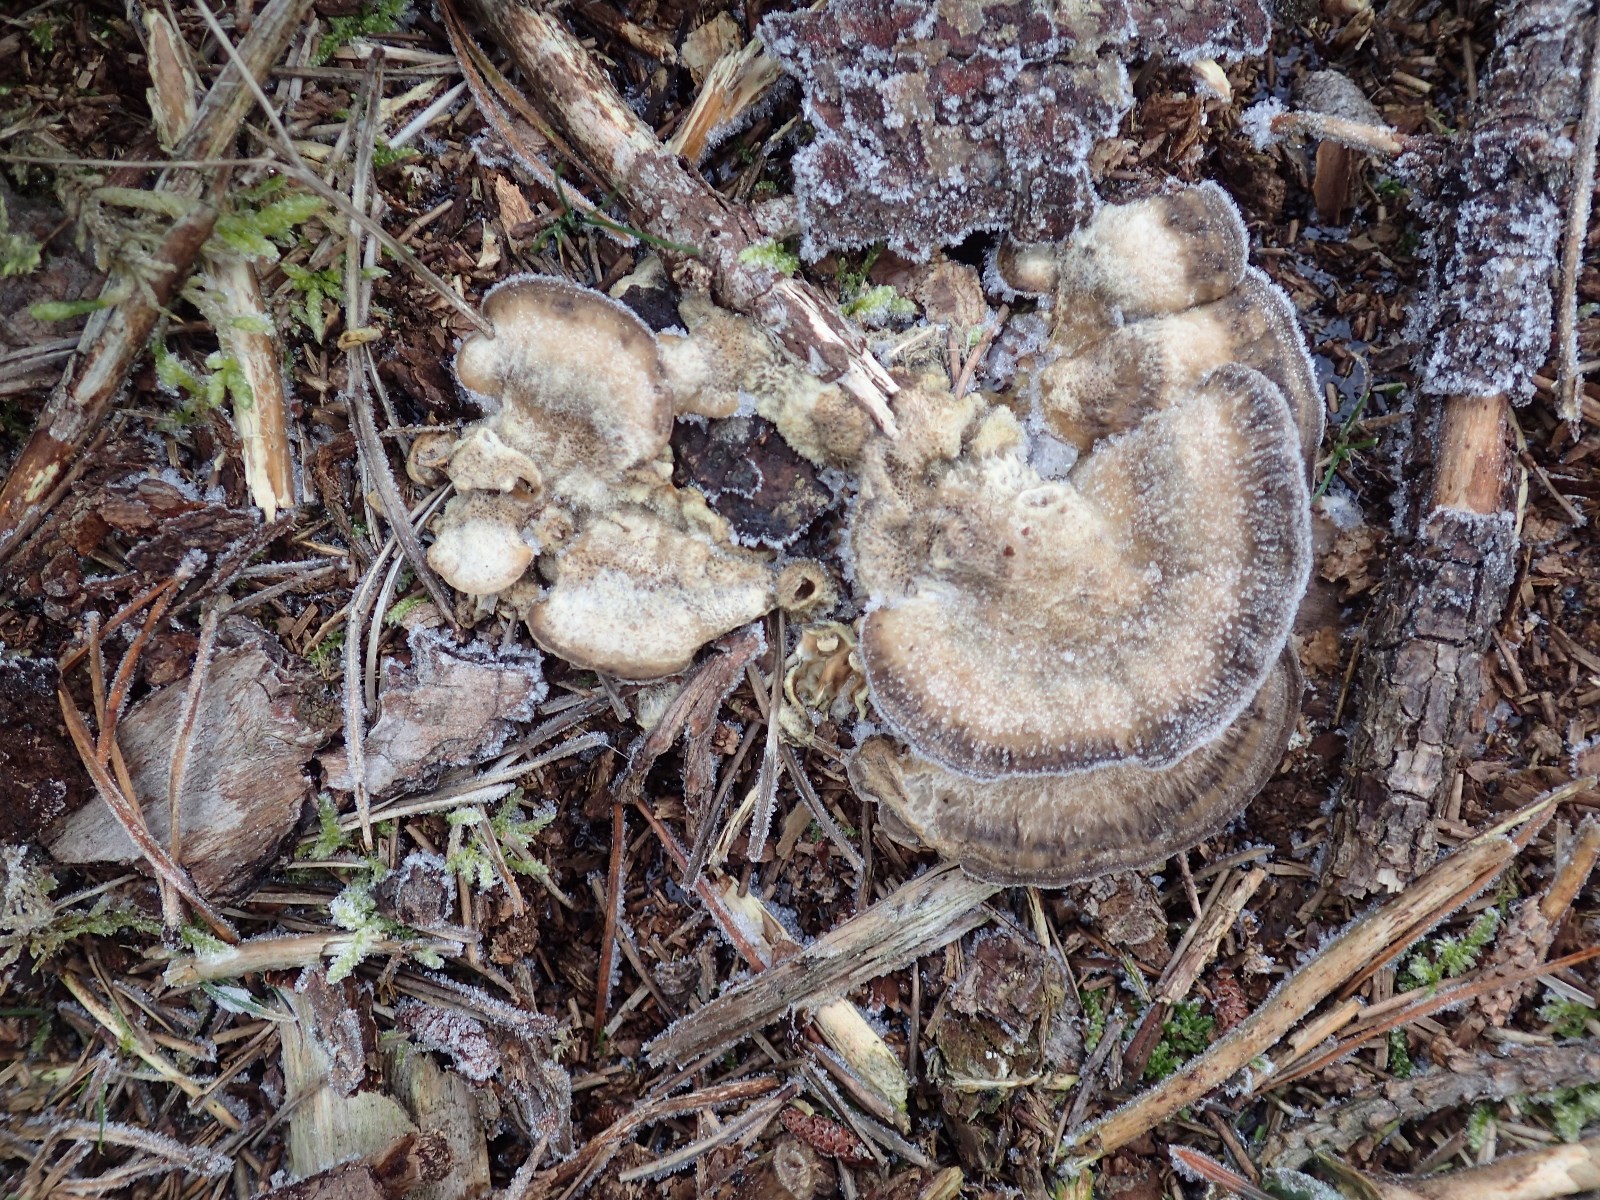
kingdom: Fungi
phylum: Basidiomycota
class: Agaricomycetes
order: Polyporales
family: Phanerochaetaceae
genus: Bjerkandera
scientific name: Bjerkandera adusta
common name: sveden sodporesvamp
